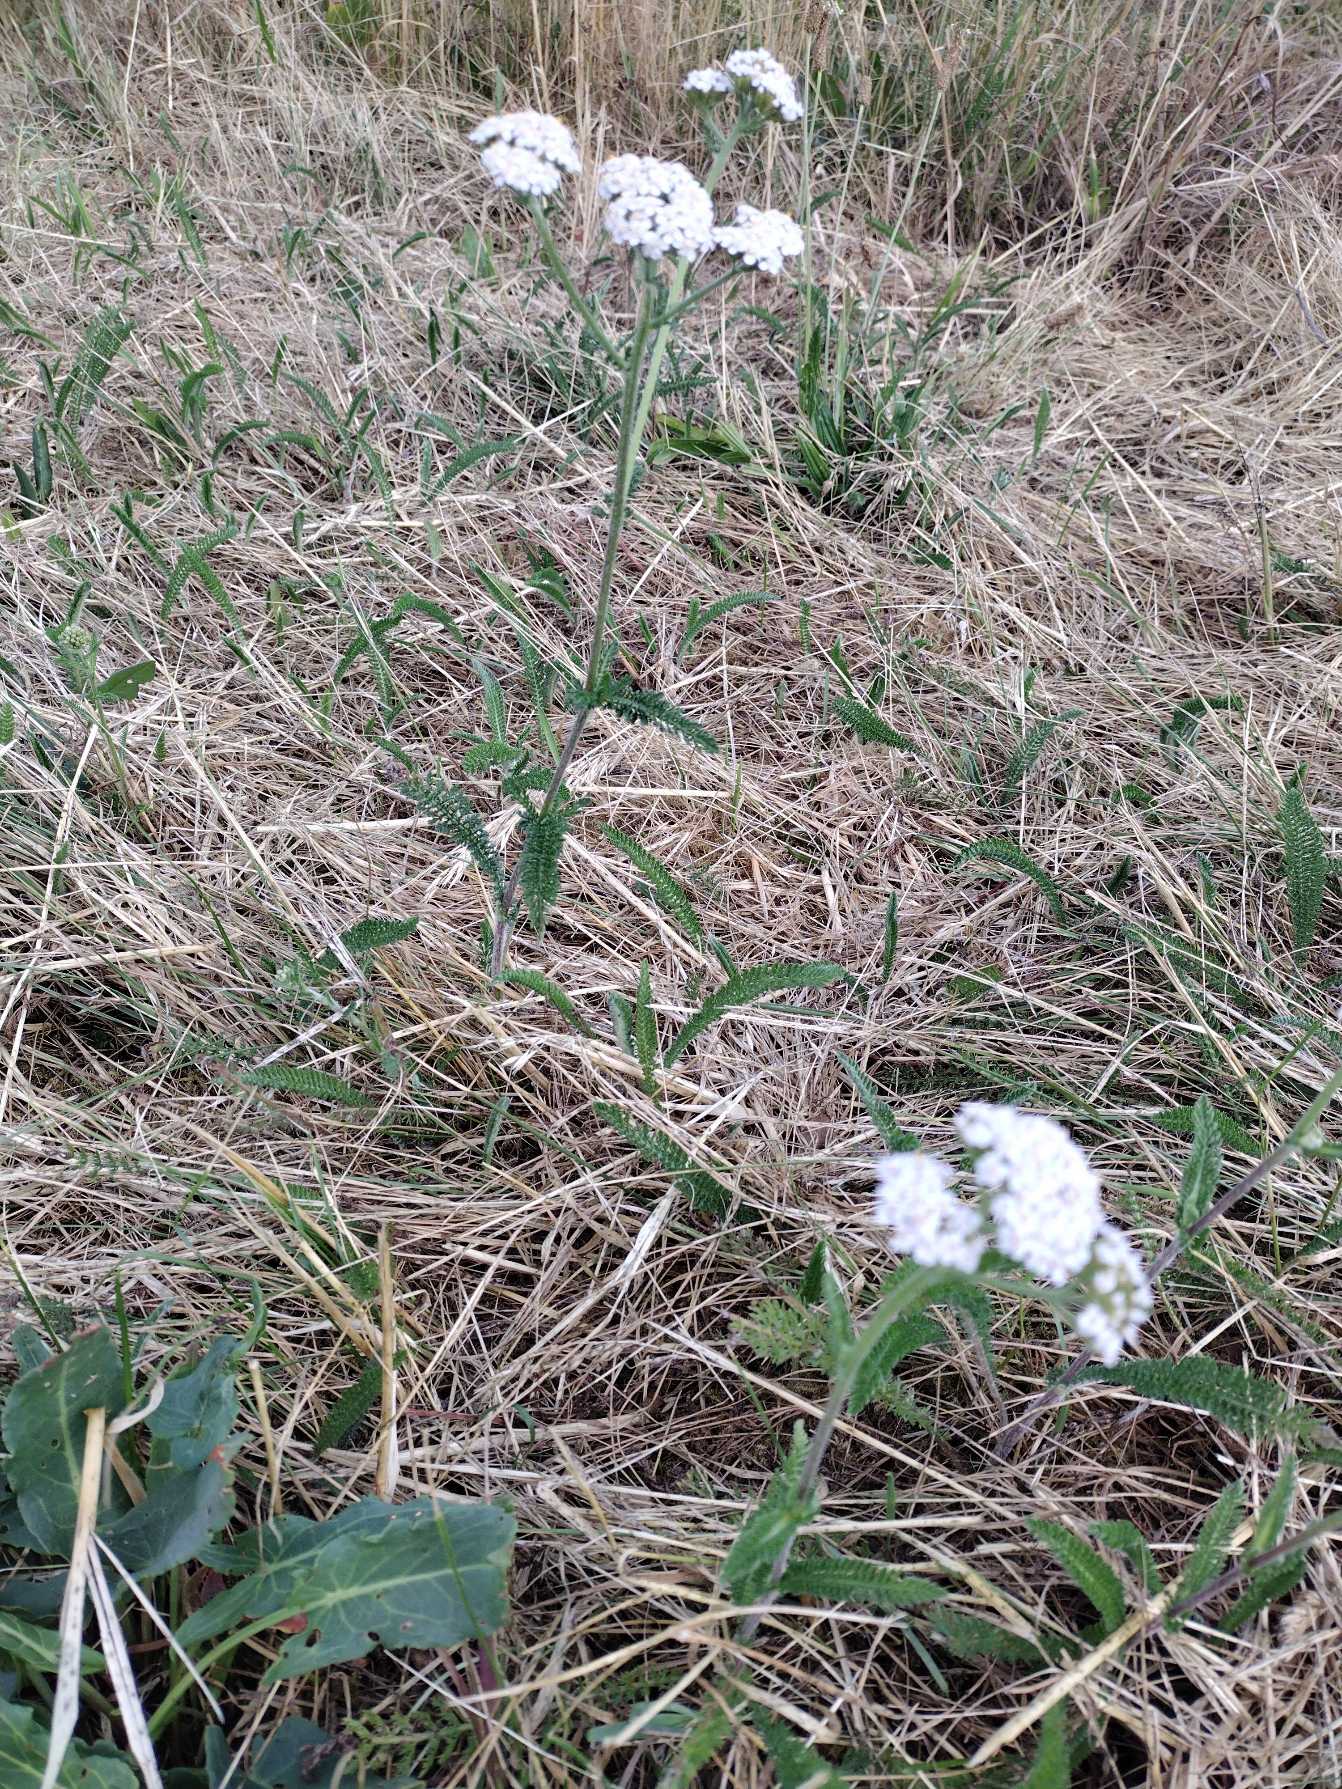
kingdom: Plantae
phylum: Tracheophyta
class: Magnoliopsida
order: Asterales
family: Asteraceae
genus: Achillea
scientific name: Achillea millefolium
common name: Almindelig røllike
